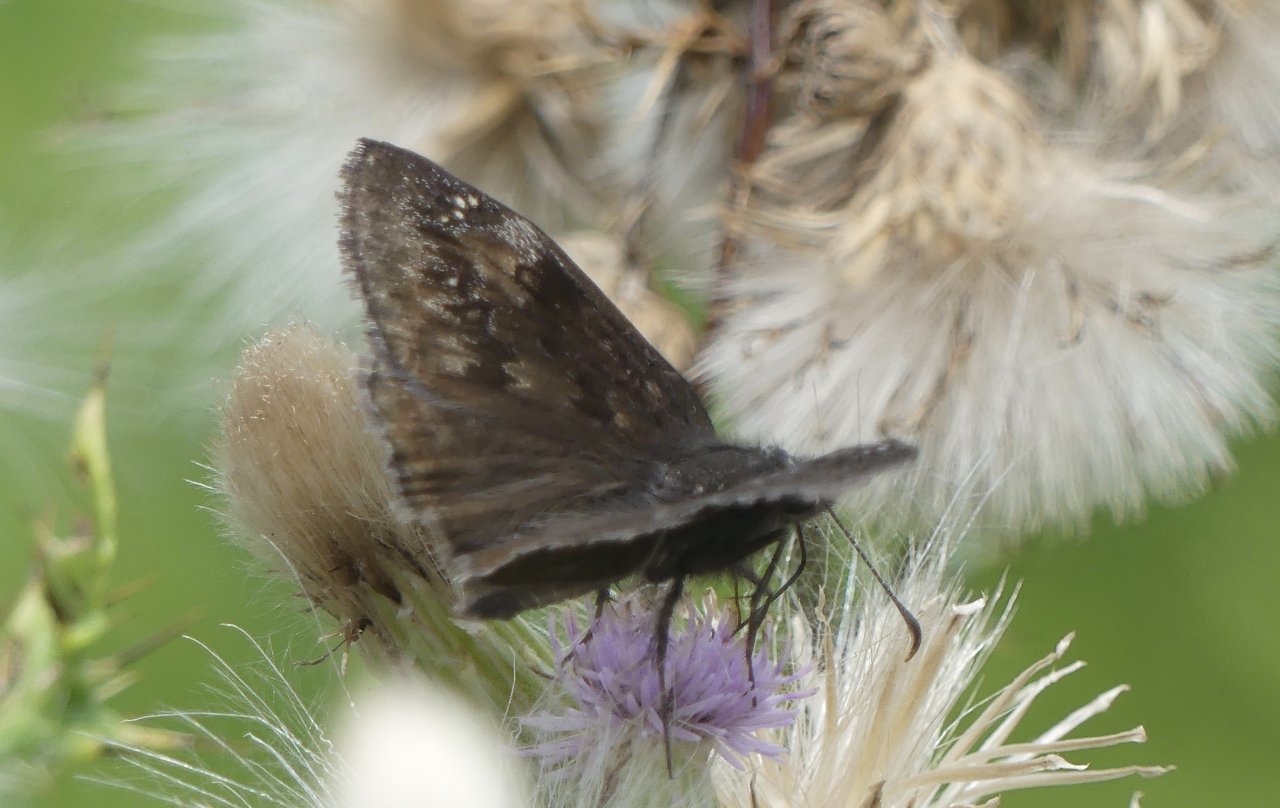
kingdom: Animalia
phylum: Arthropoda
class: Insecta
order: Lepidoptera
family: Hesperiidae
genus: Gesta
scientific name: Gesta
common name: Wild Indigo Duskywing
